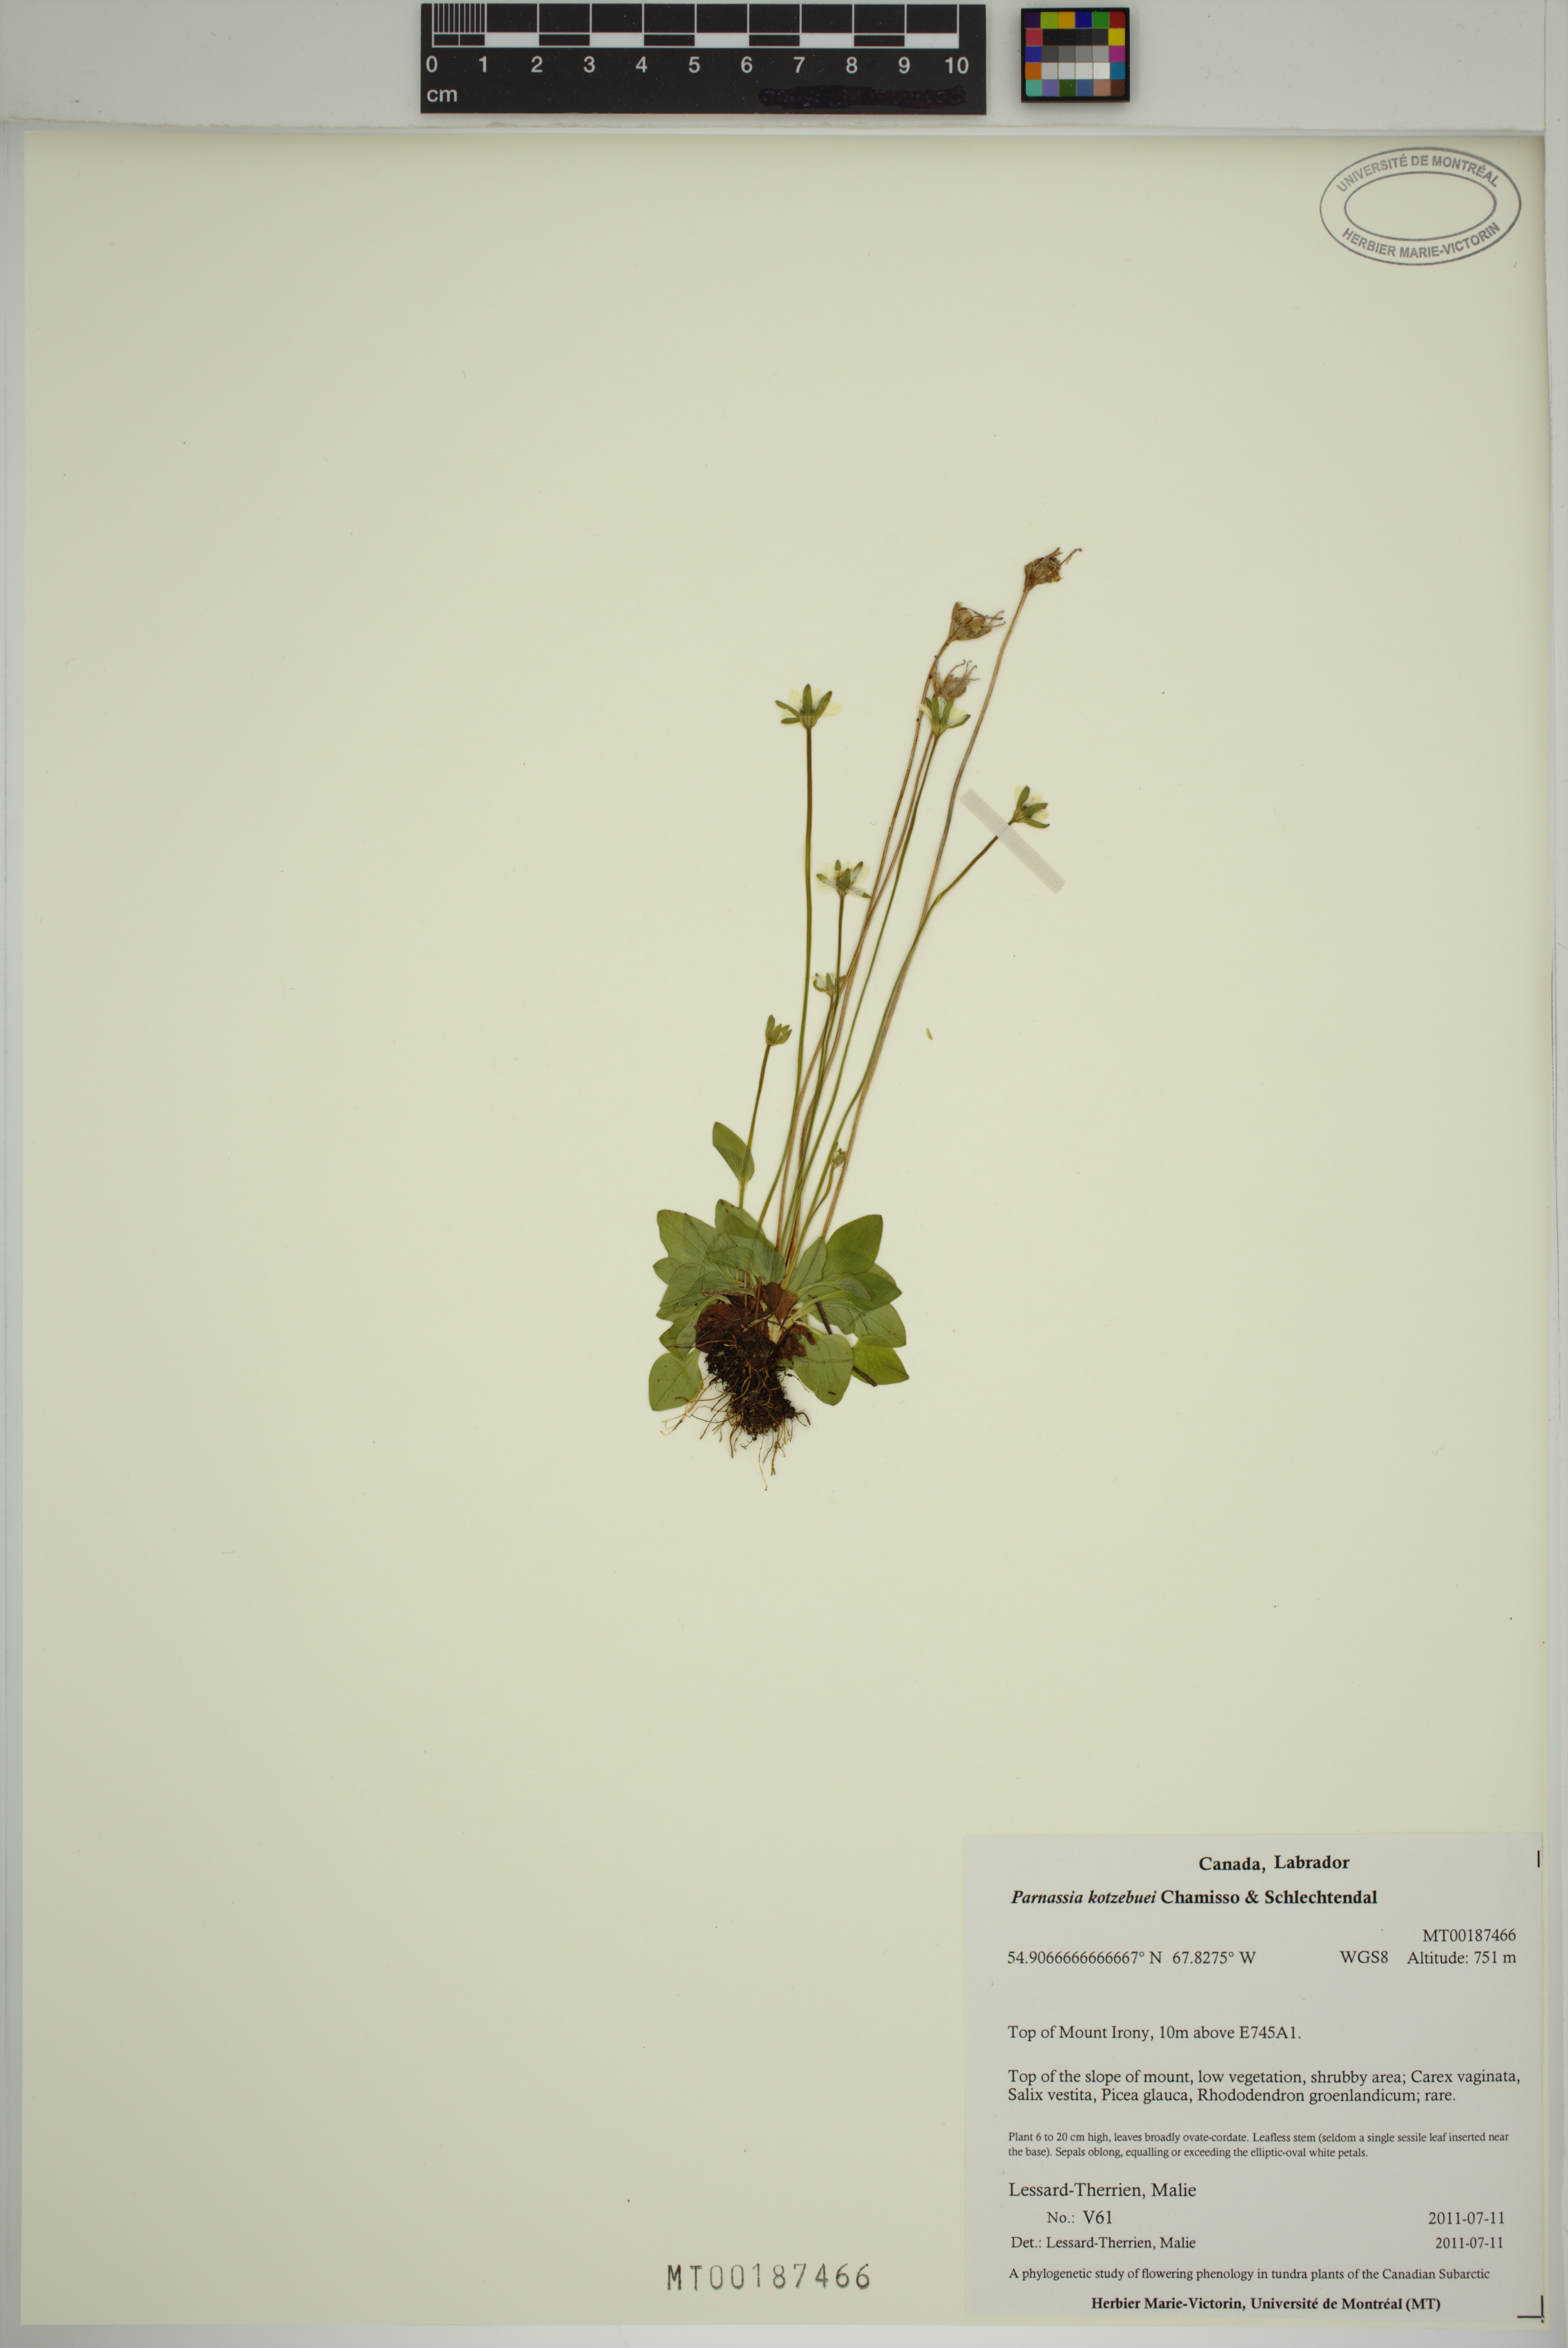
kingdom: Plantae
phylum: Tracheophyta
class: Magnoliopsida
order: Celastrales
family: Parnassiaceae
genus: Parnassia
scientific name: Parnassia kotzebuei
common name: Kotzebue's grass-of-parnassus
